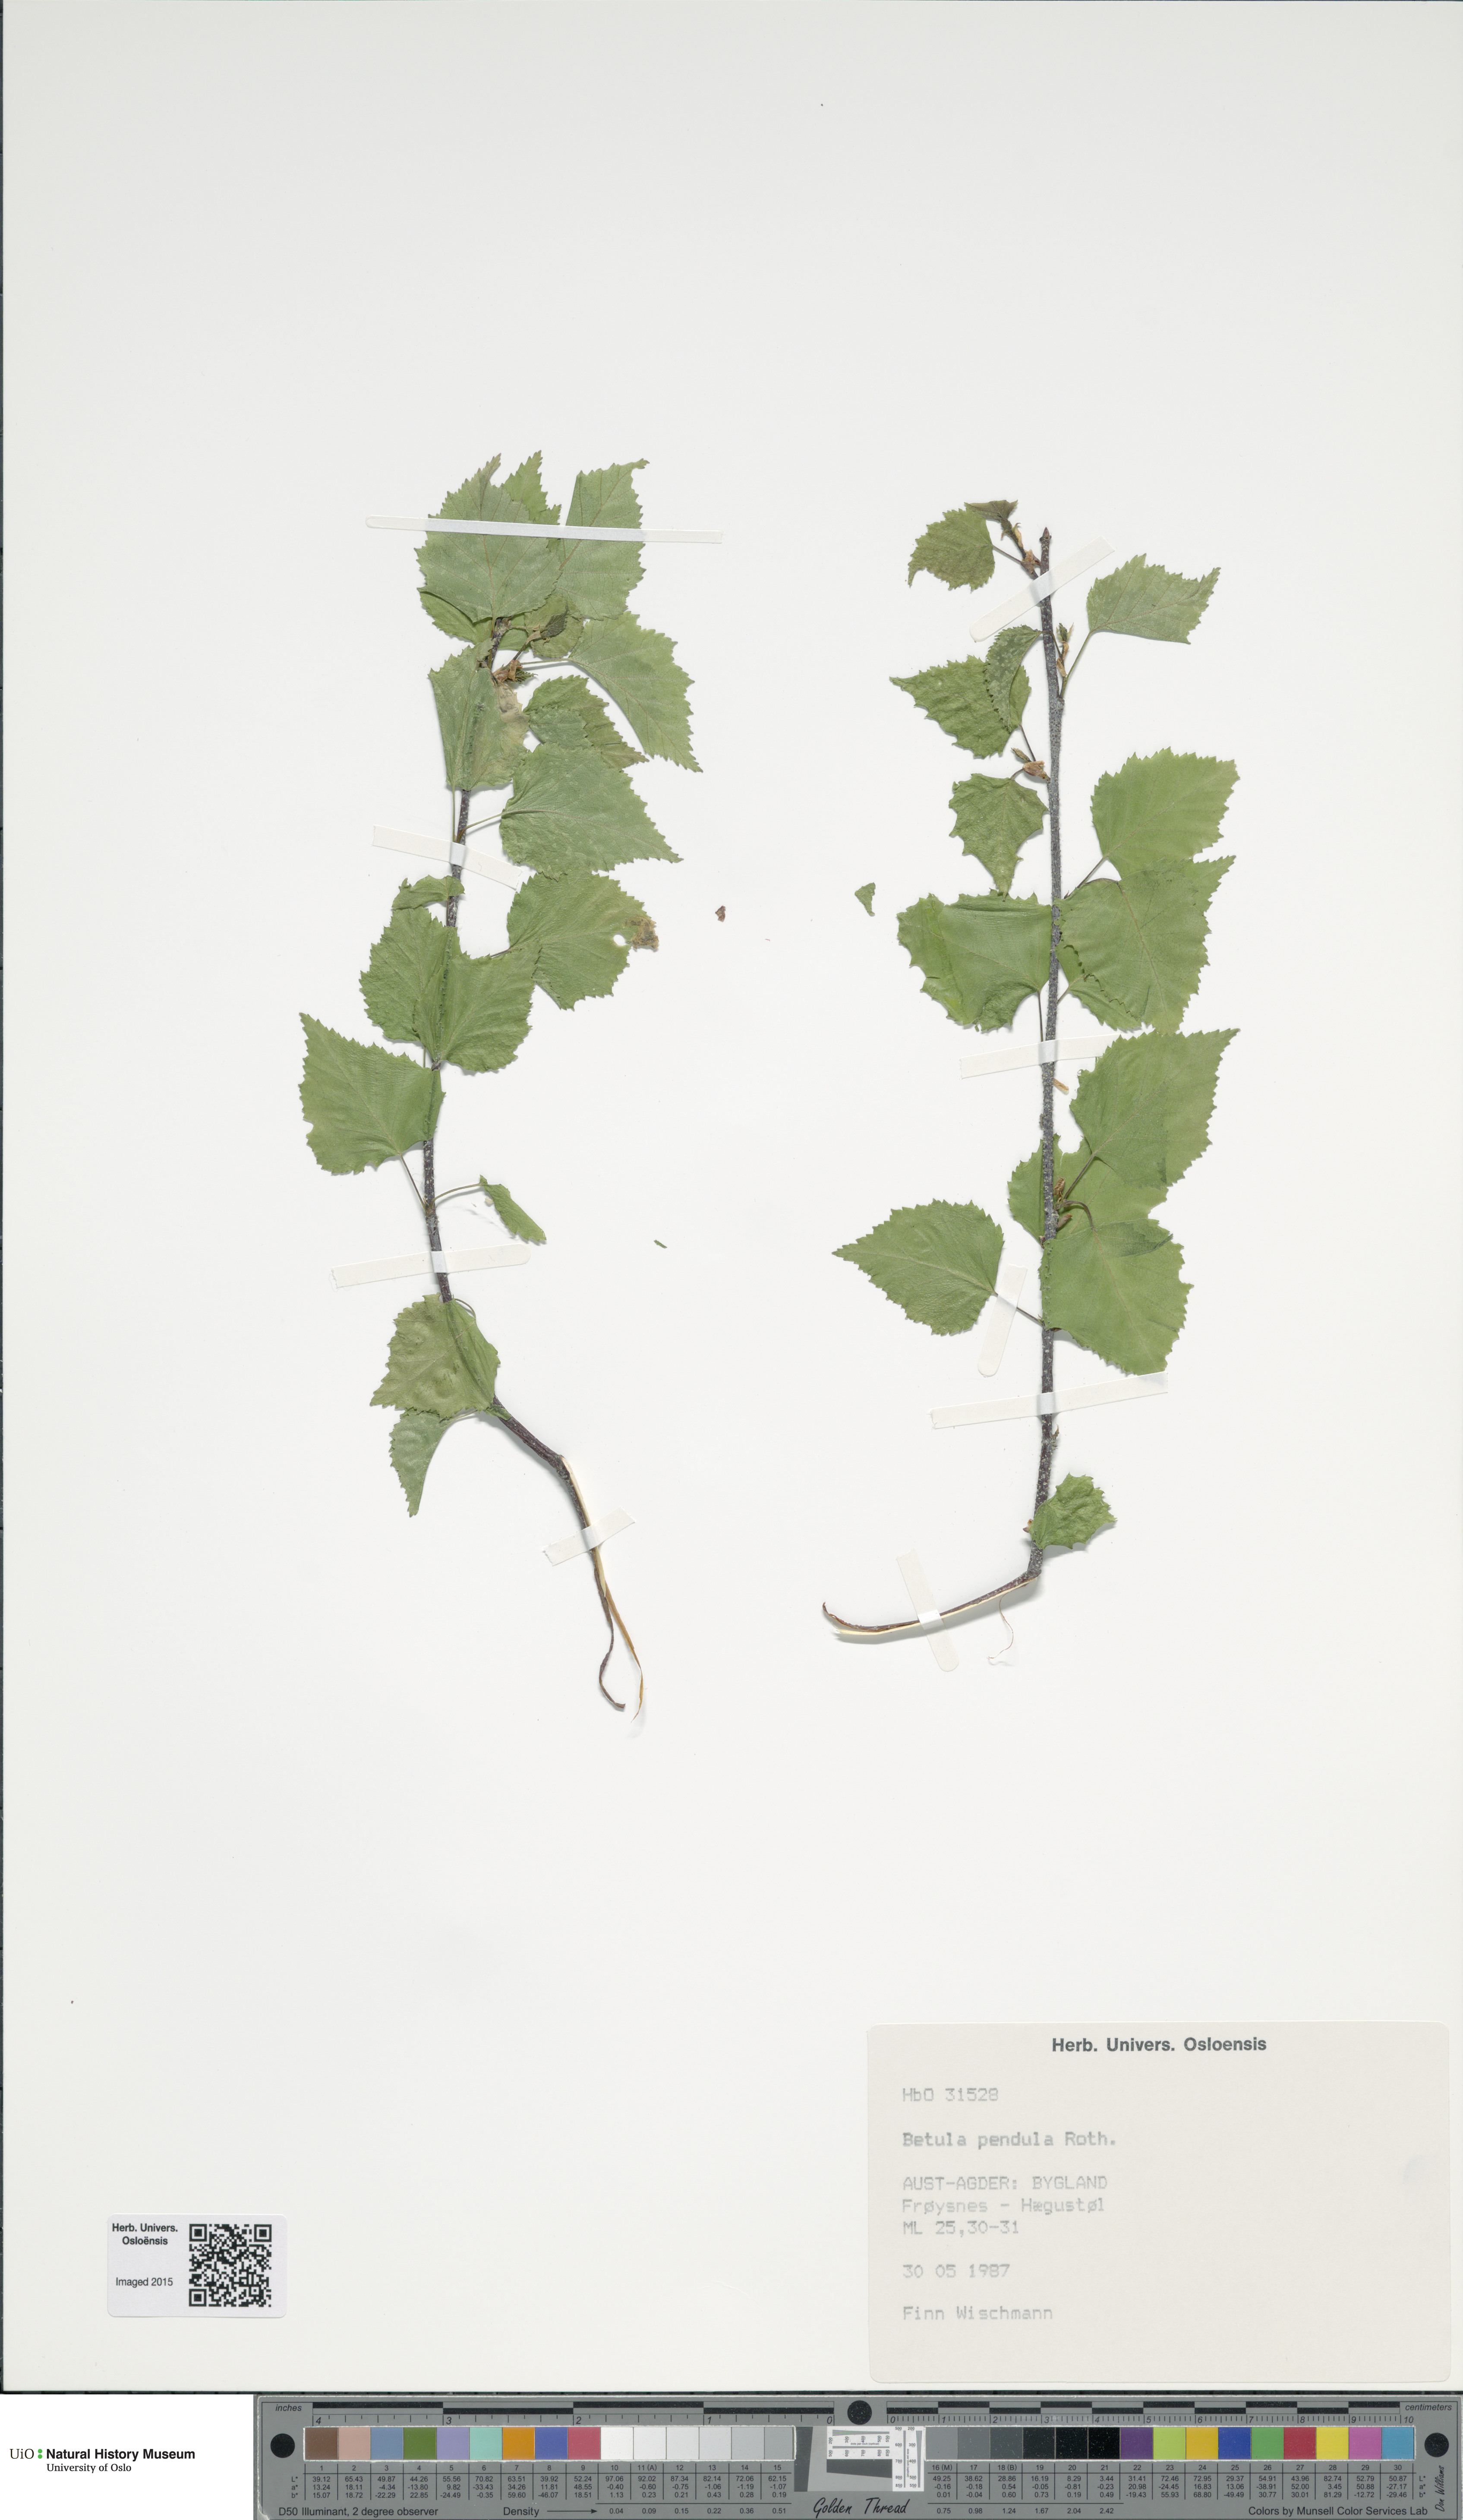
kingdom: Plantae
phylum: Tracheophyta
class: Magnoliopsida
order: Fagales
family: Betulaceae
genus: Betula
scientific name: Betula pendula
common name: Silver birch
